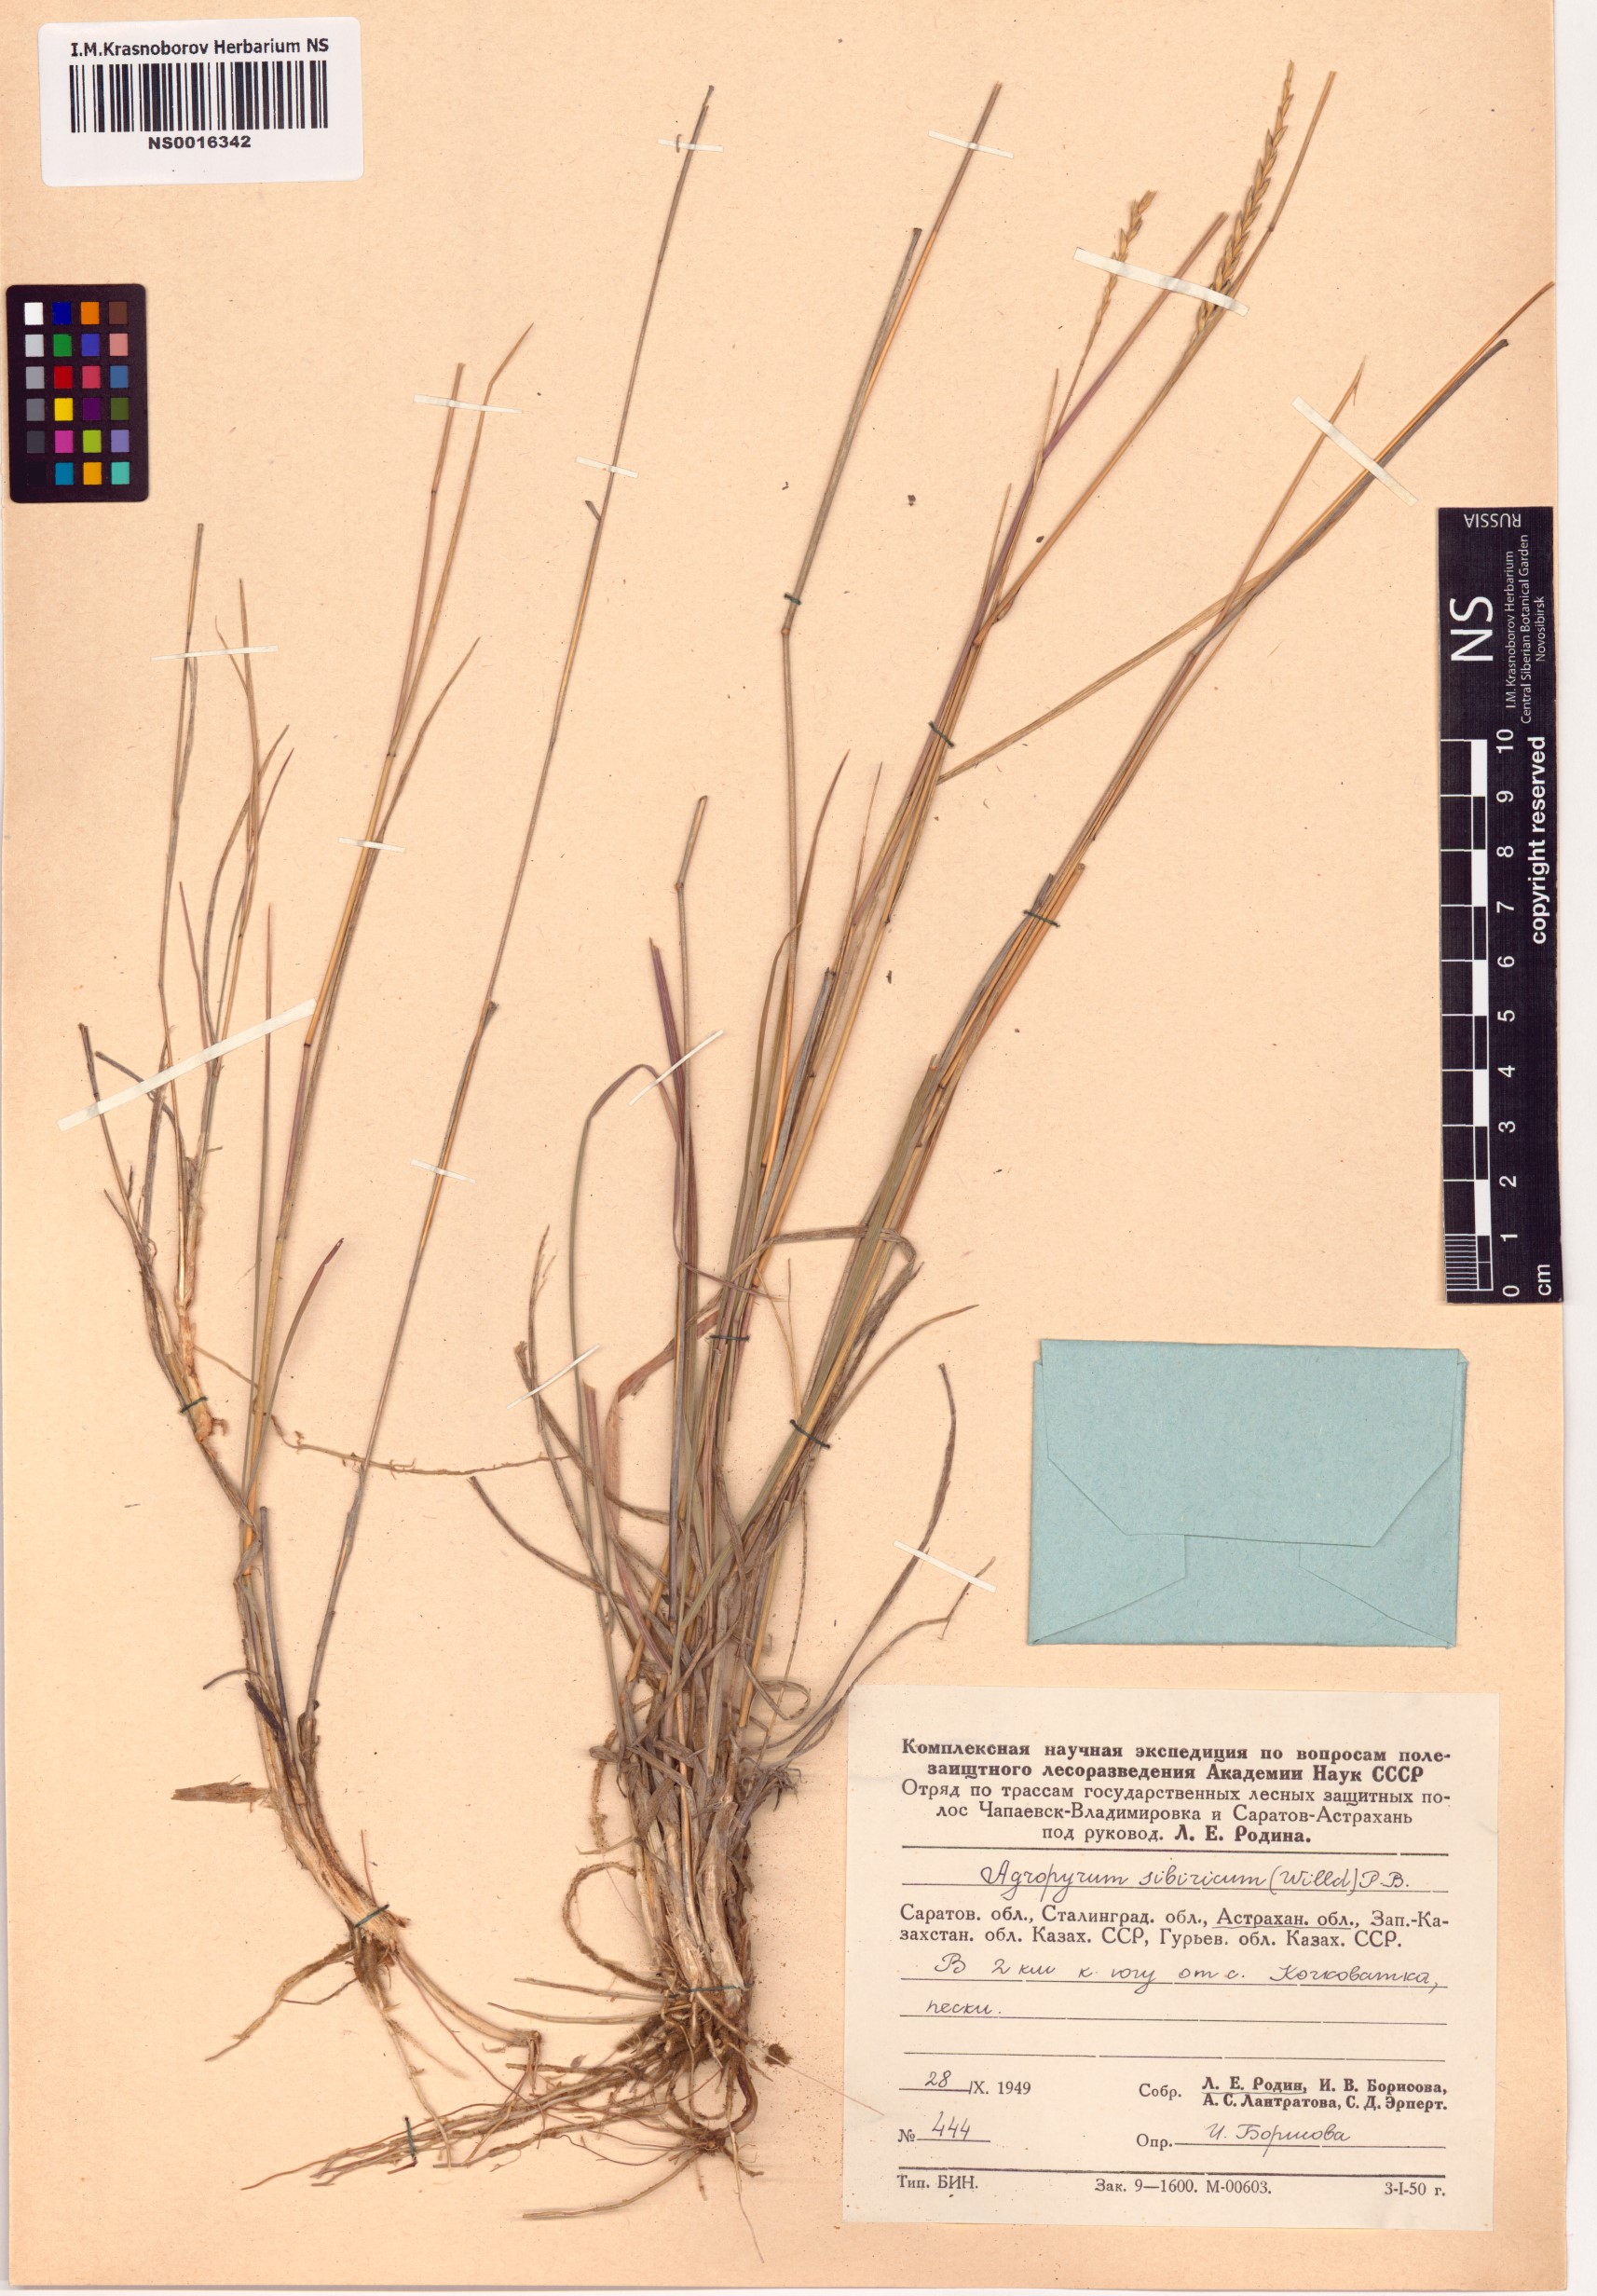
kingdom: Plantae
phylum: Tracheophyta
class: Liliopsida
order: Poales
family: Poaceae
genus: Agropyron
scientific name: Agropyron fragile
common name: Siberian wheatgrass
